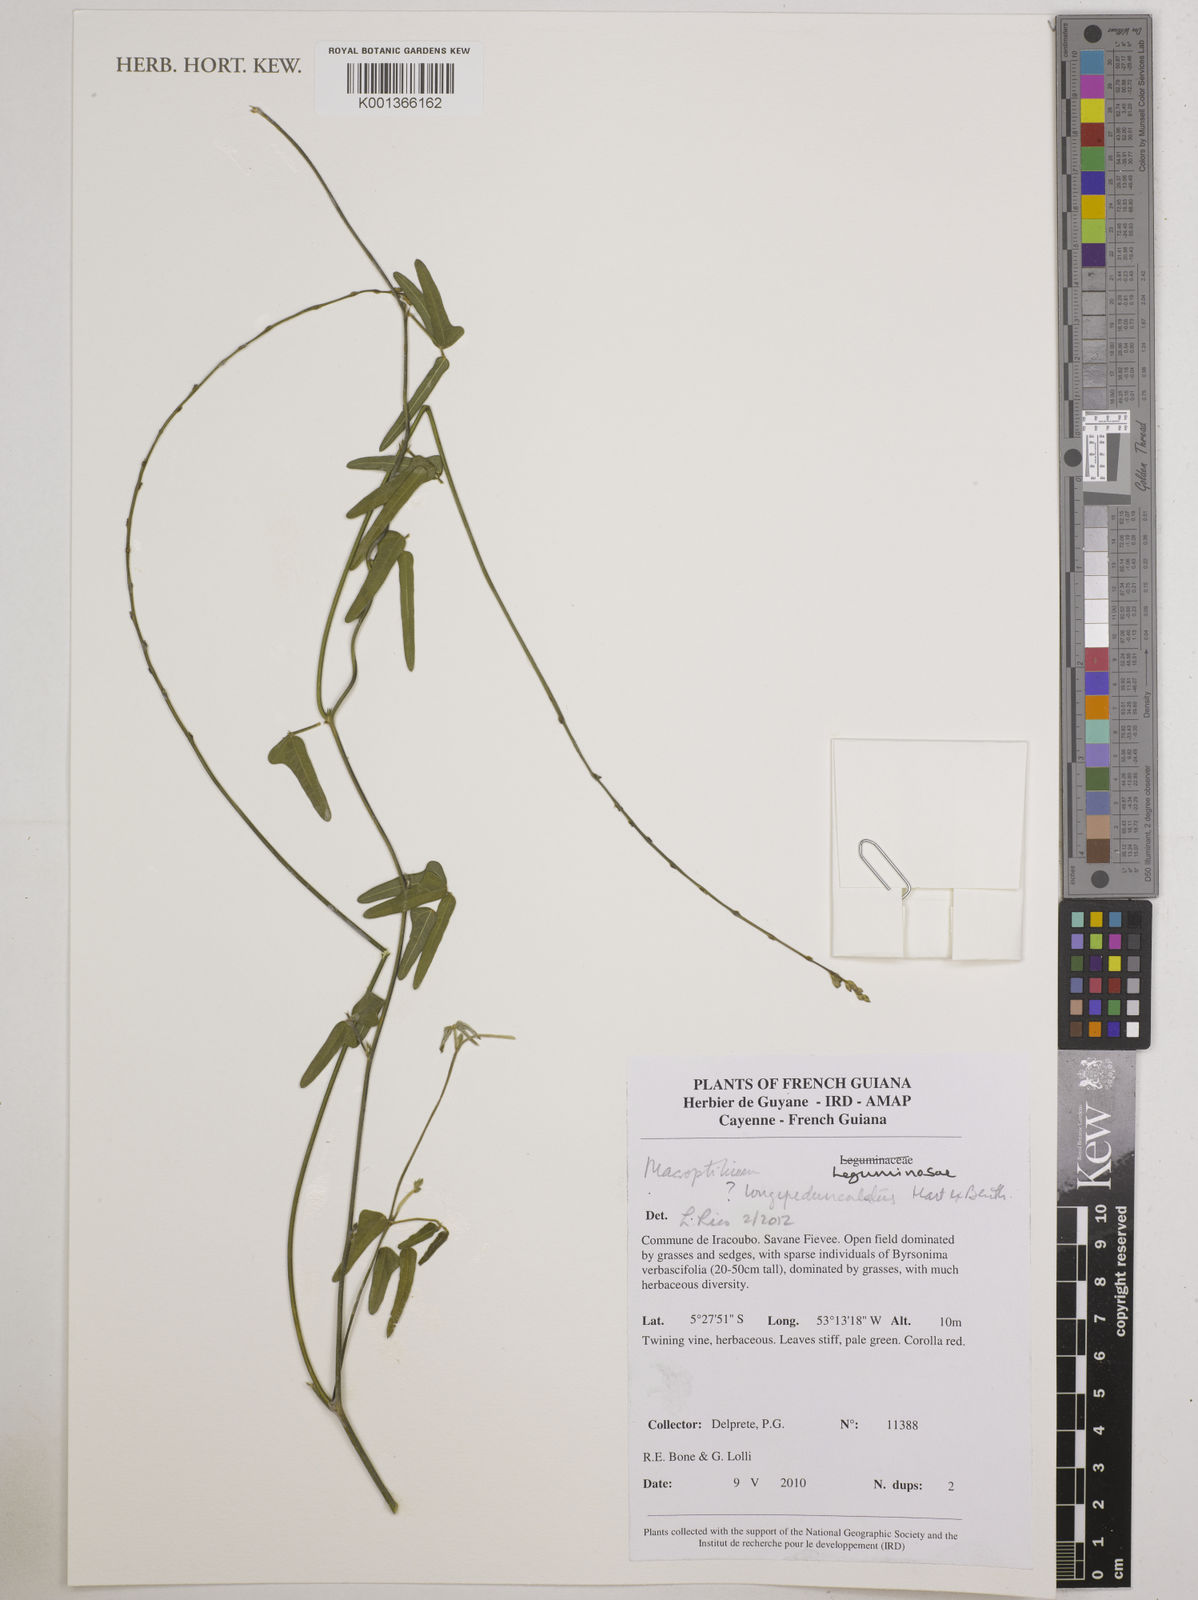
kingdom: Plantae
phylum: Tracheophyta
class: Magnoliopsida
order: Fabales
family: Fabaceae
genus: Macroptilium
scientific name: Macroptilium longepedunculatum
